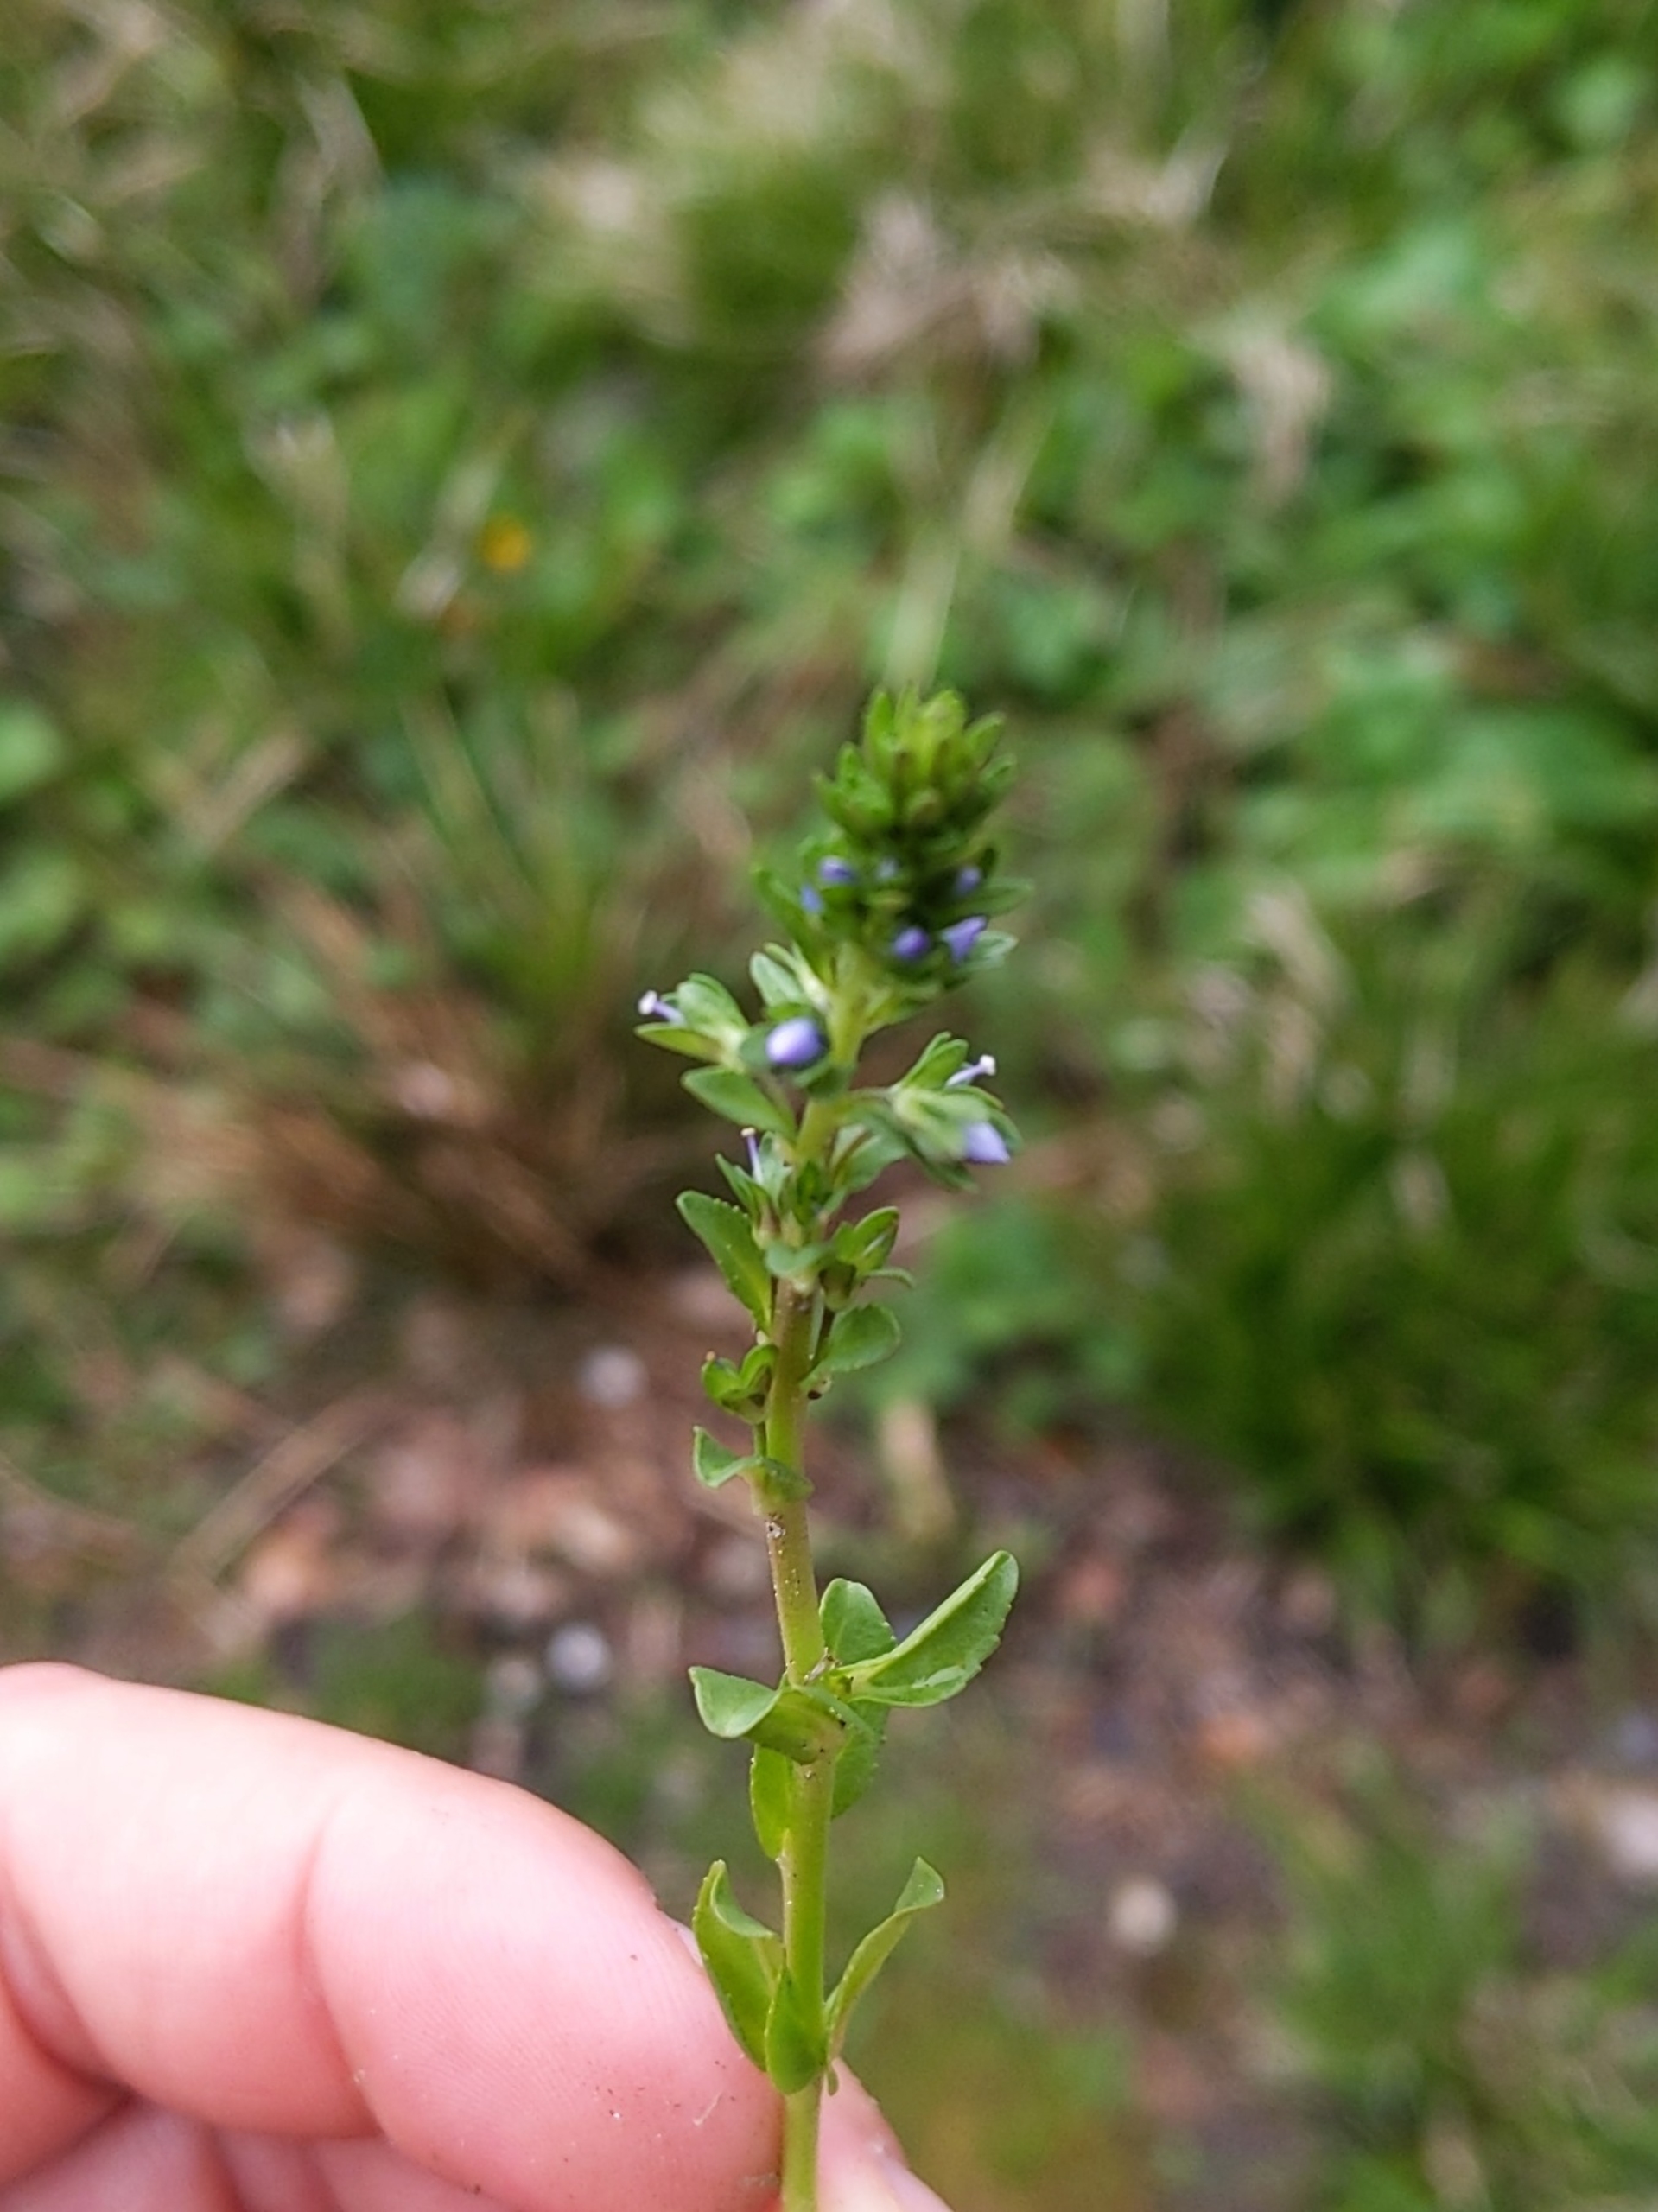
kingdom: Plantae
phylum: Tracheophyta
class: Magnoliopsida
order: Lamiales
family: Plantaginaceae
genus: Veronica
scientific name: Veronica serpyllifolia
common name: Glat ærenpris
